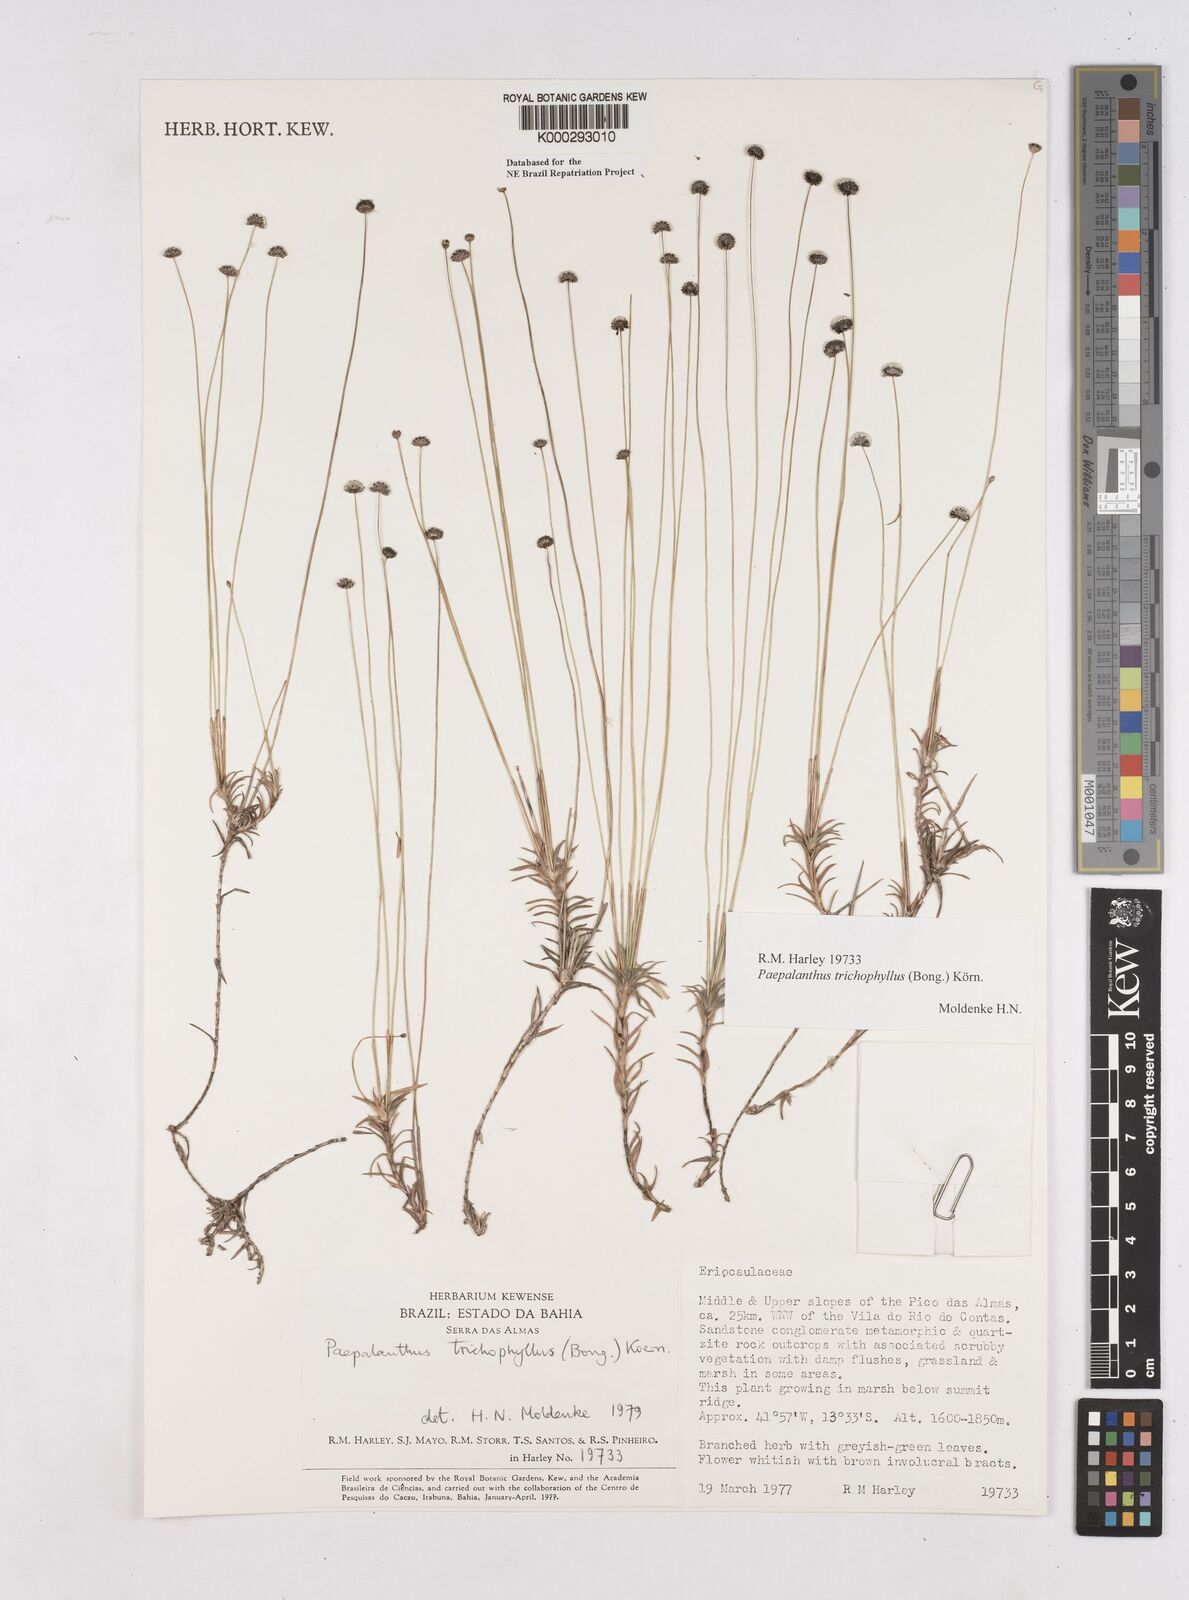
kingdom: Plantae
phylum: Tracheophyta
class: Liliopsida
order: Poales
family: Eriocaulaceae
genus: Paepalanthus
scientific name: Paepalanthus
